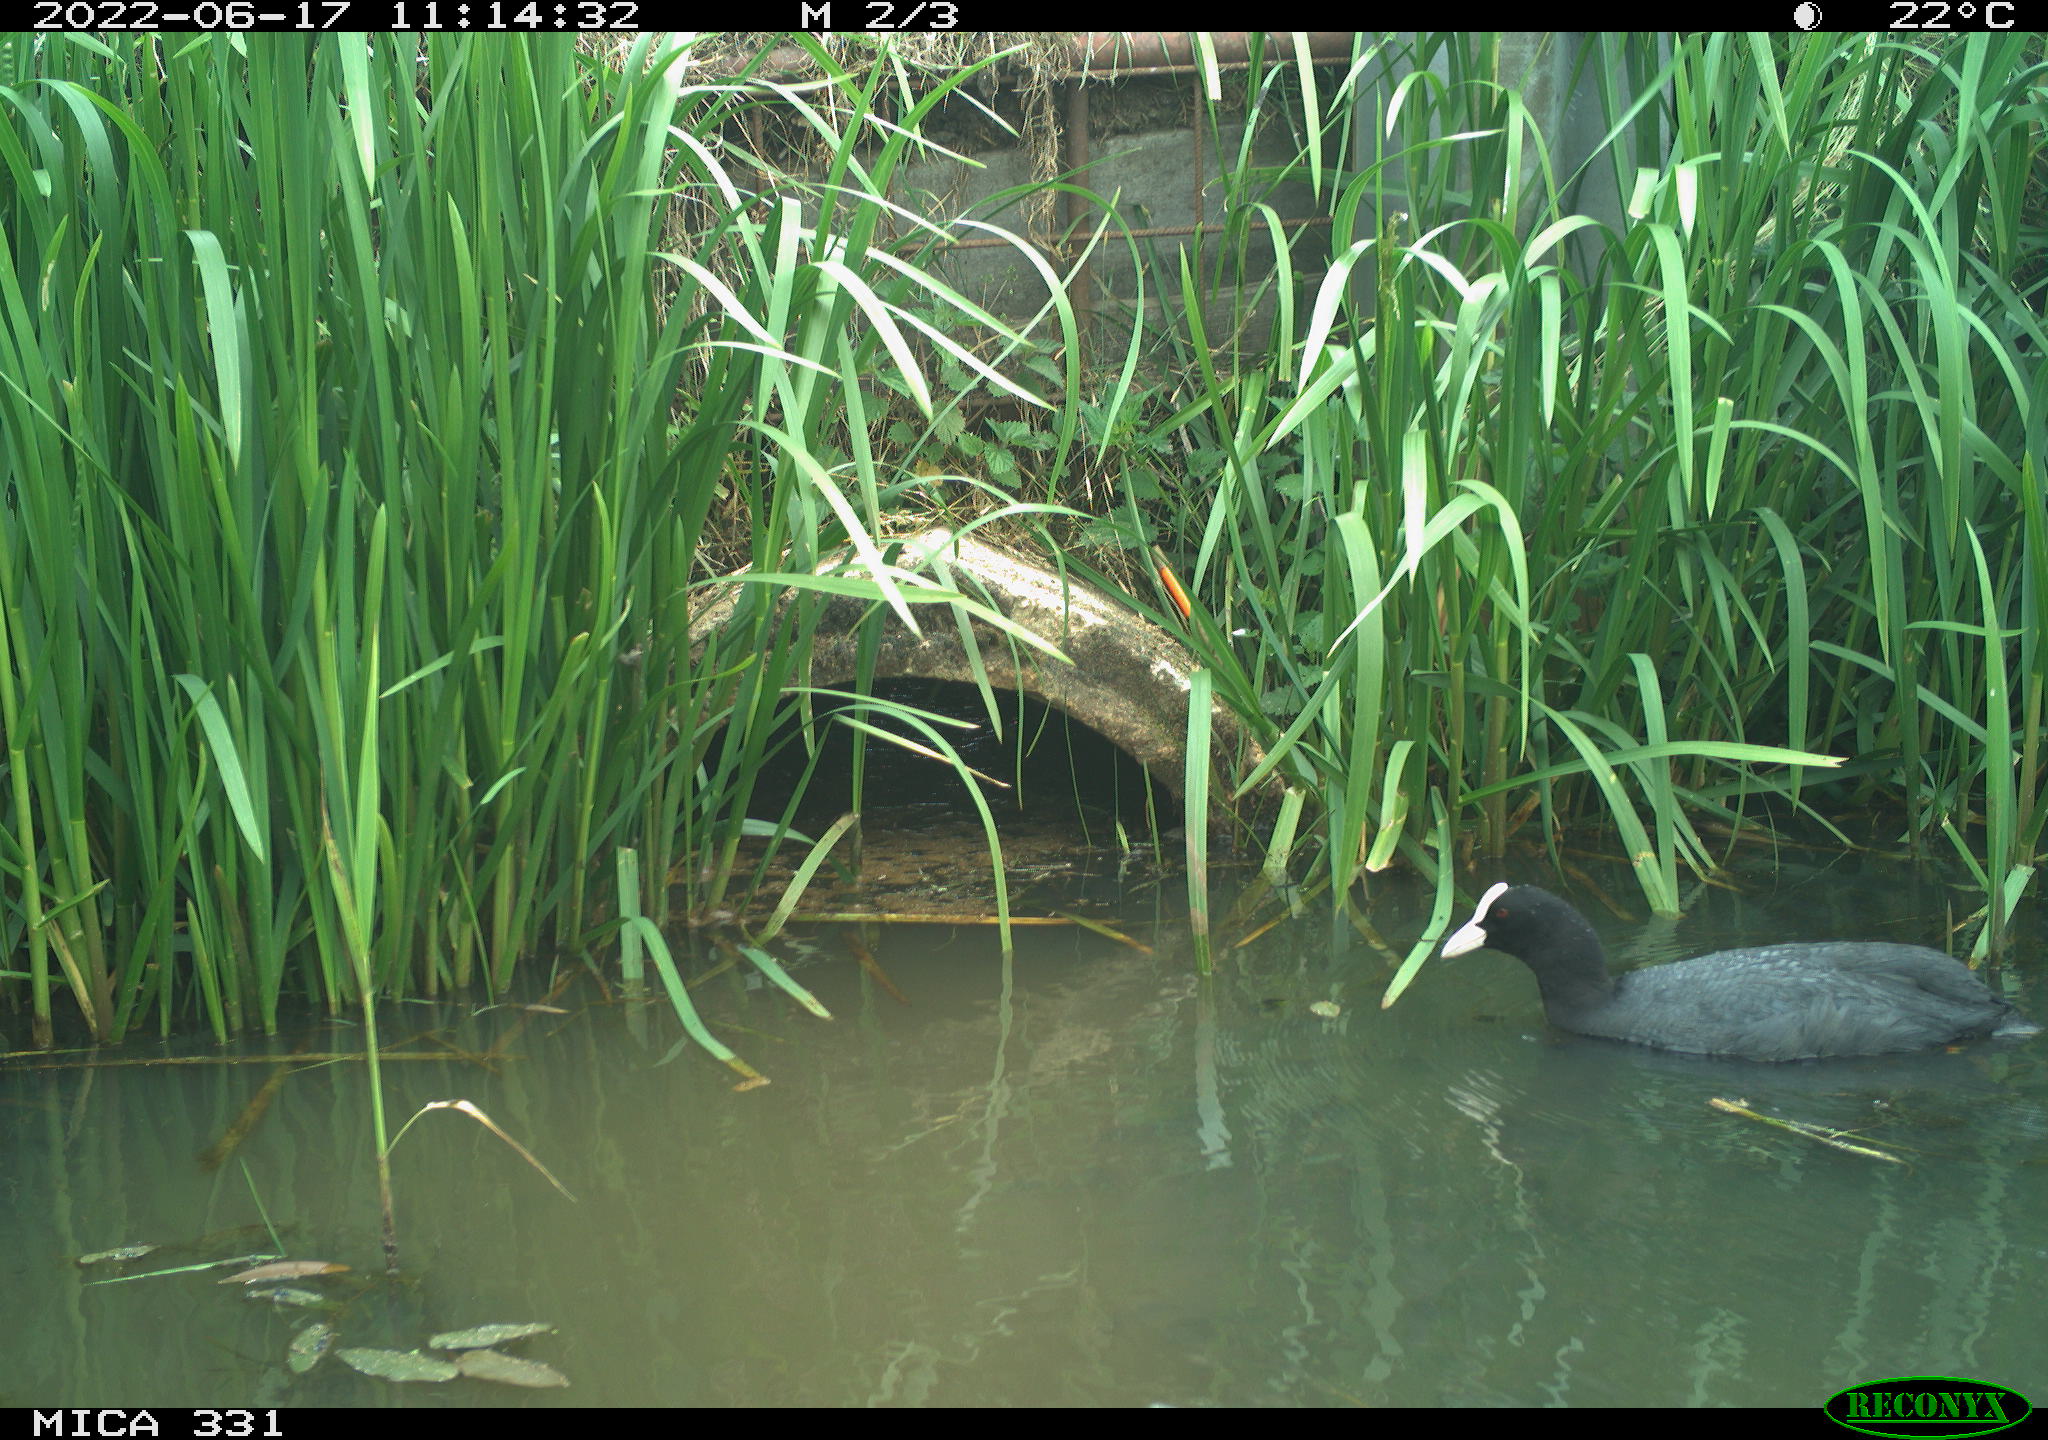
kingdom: Animalia
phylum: Chordata
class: Aves
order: Gruiformes
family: Rallidae
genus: Fulica
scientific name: Fulica atra
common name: Eurasian coot
